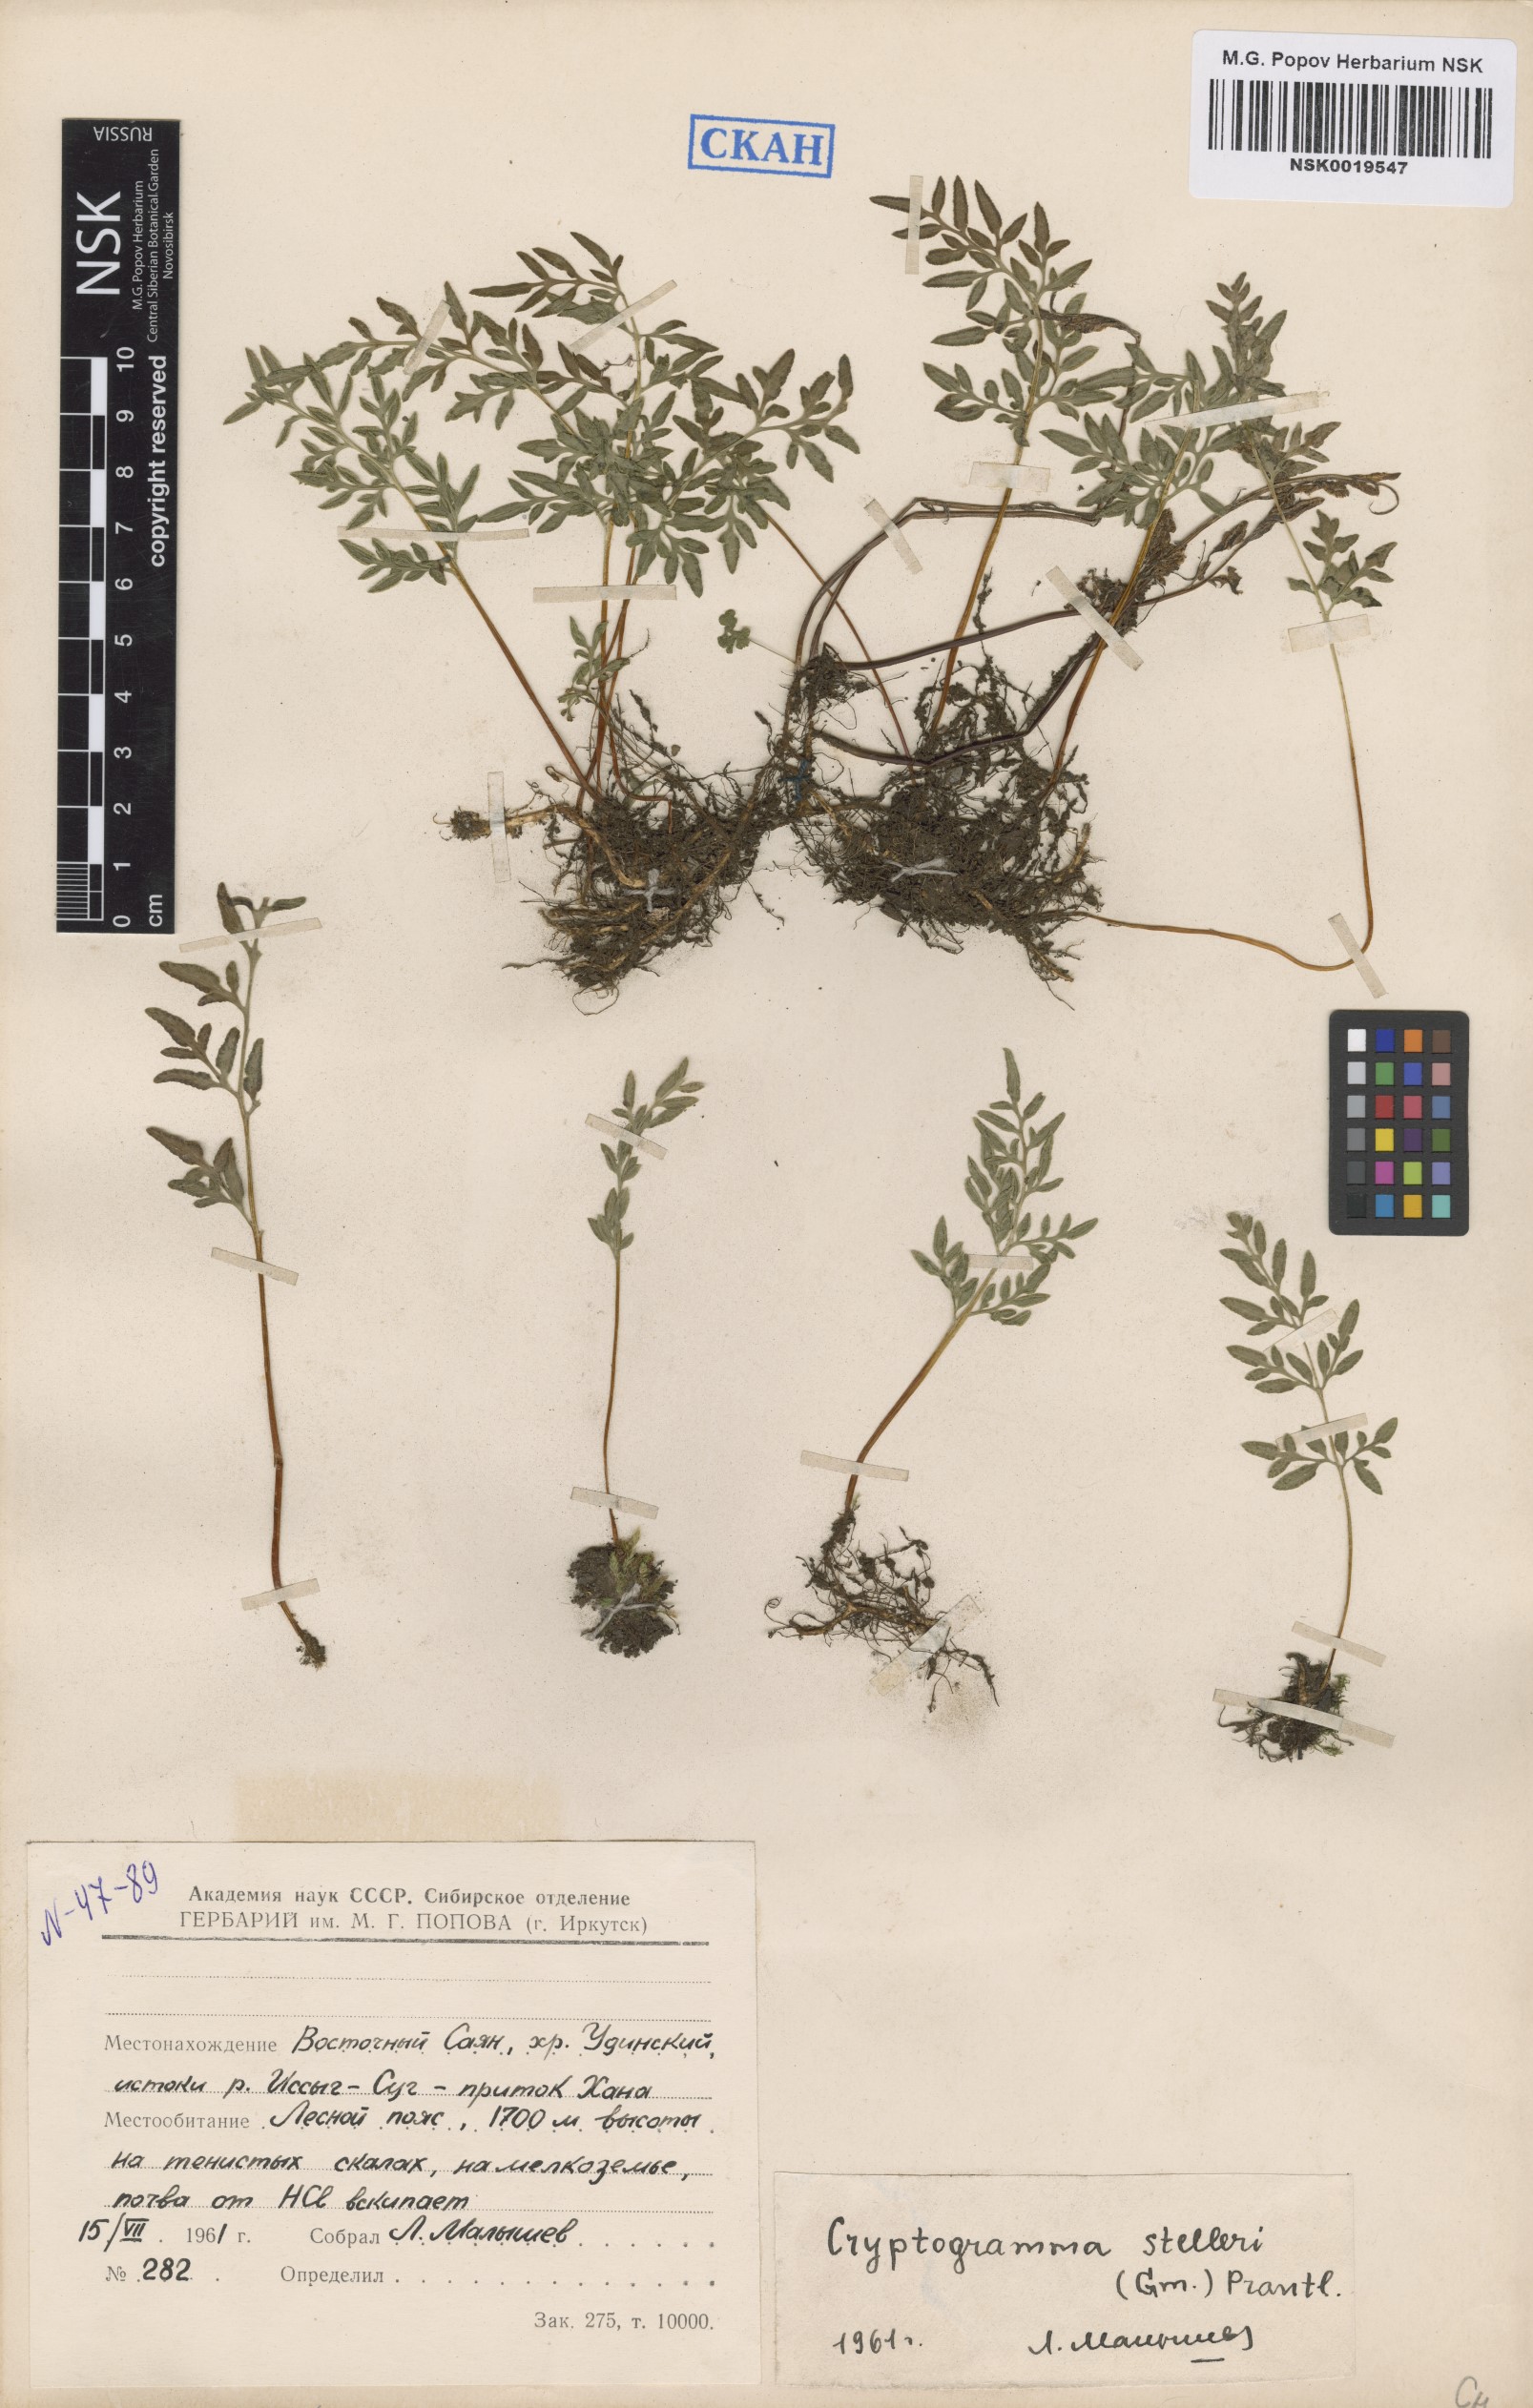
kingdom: Plantae
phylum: Tracheophyta
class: Polypodiopsida
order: Polypodiales
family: Pteridaceae
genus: Cryptogramma
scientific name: Cryptogramma stelleri
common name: Cliff-brake
